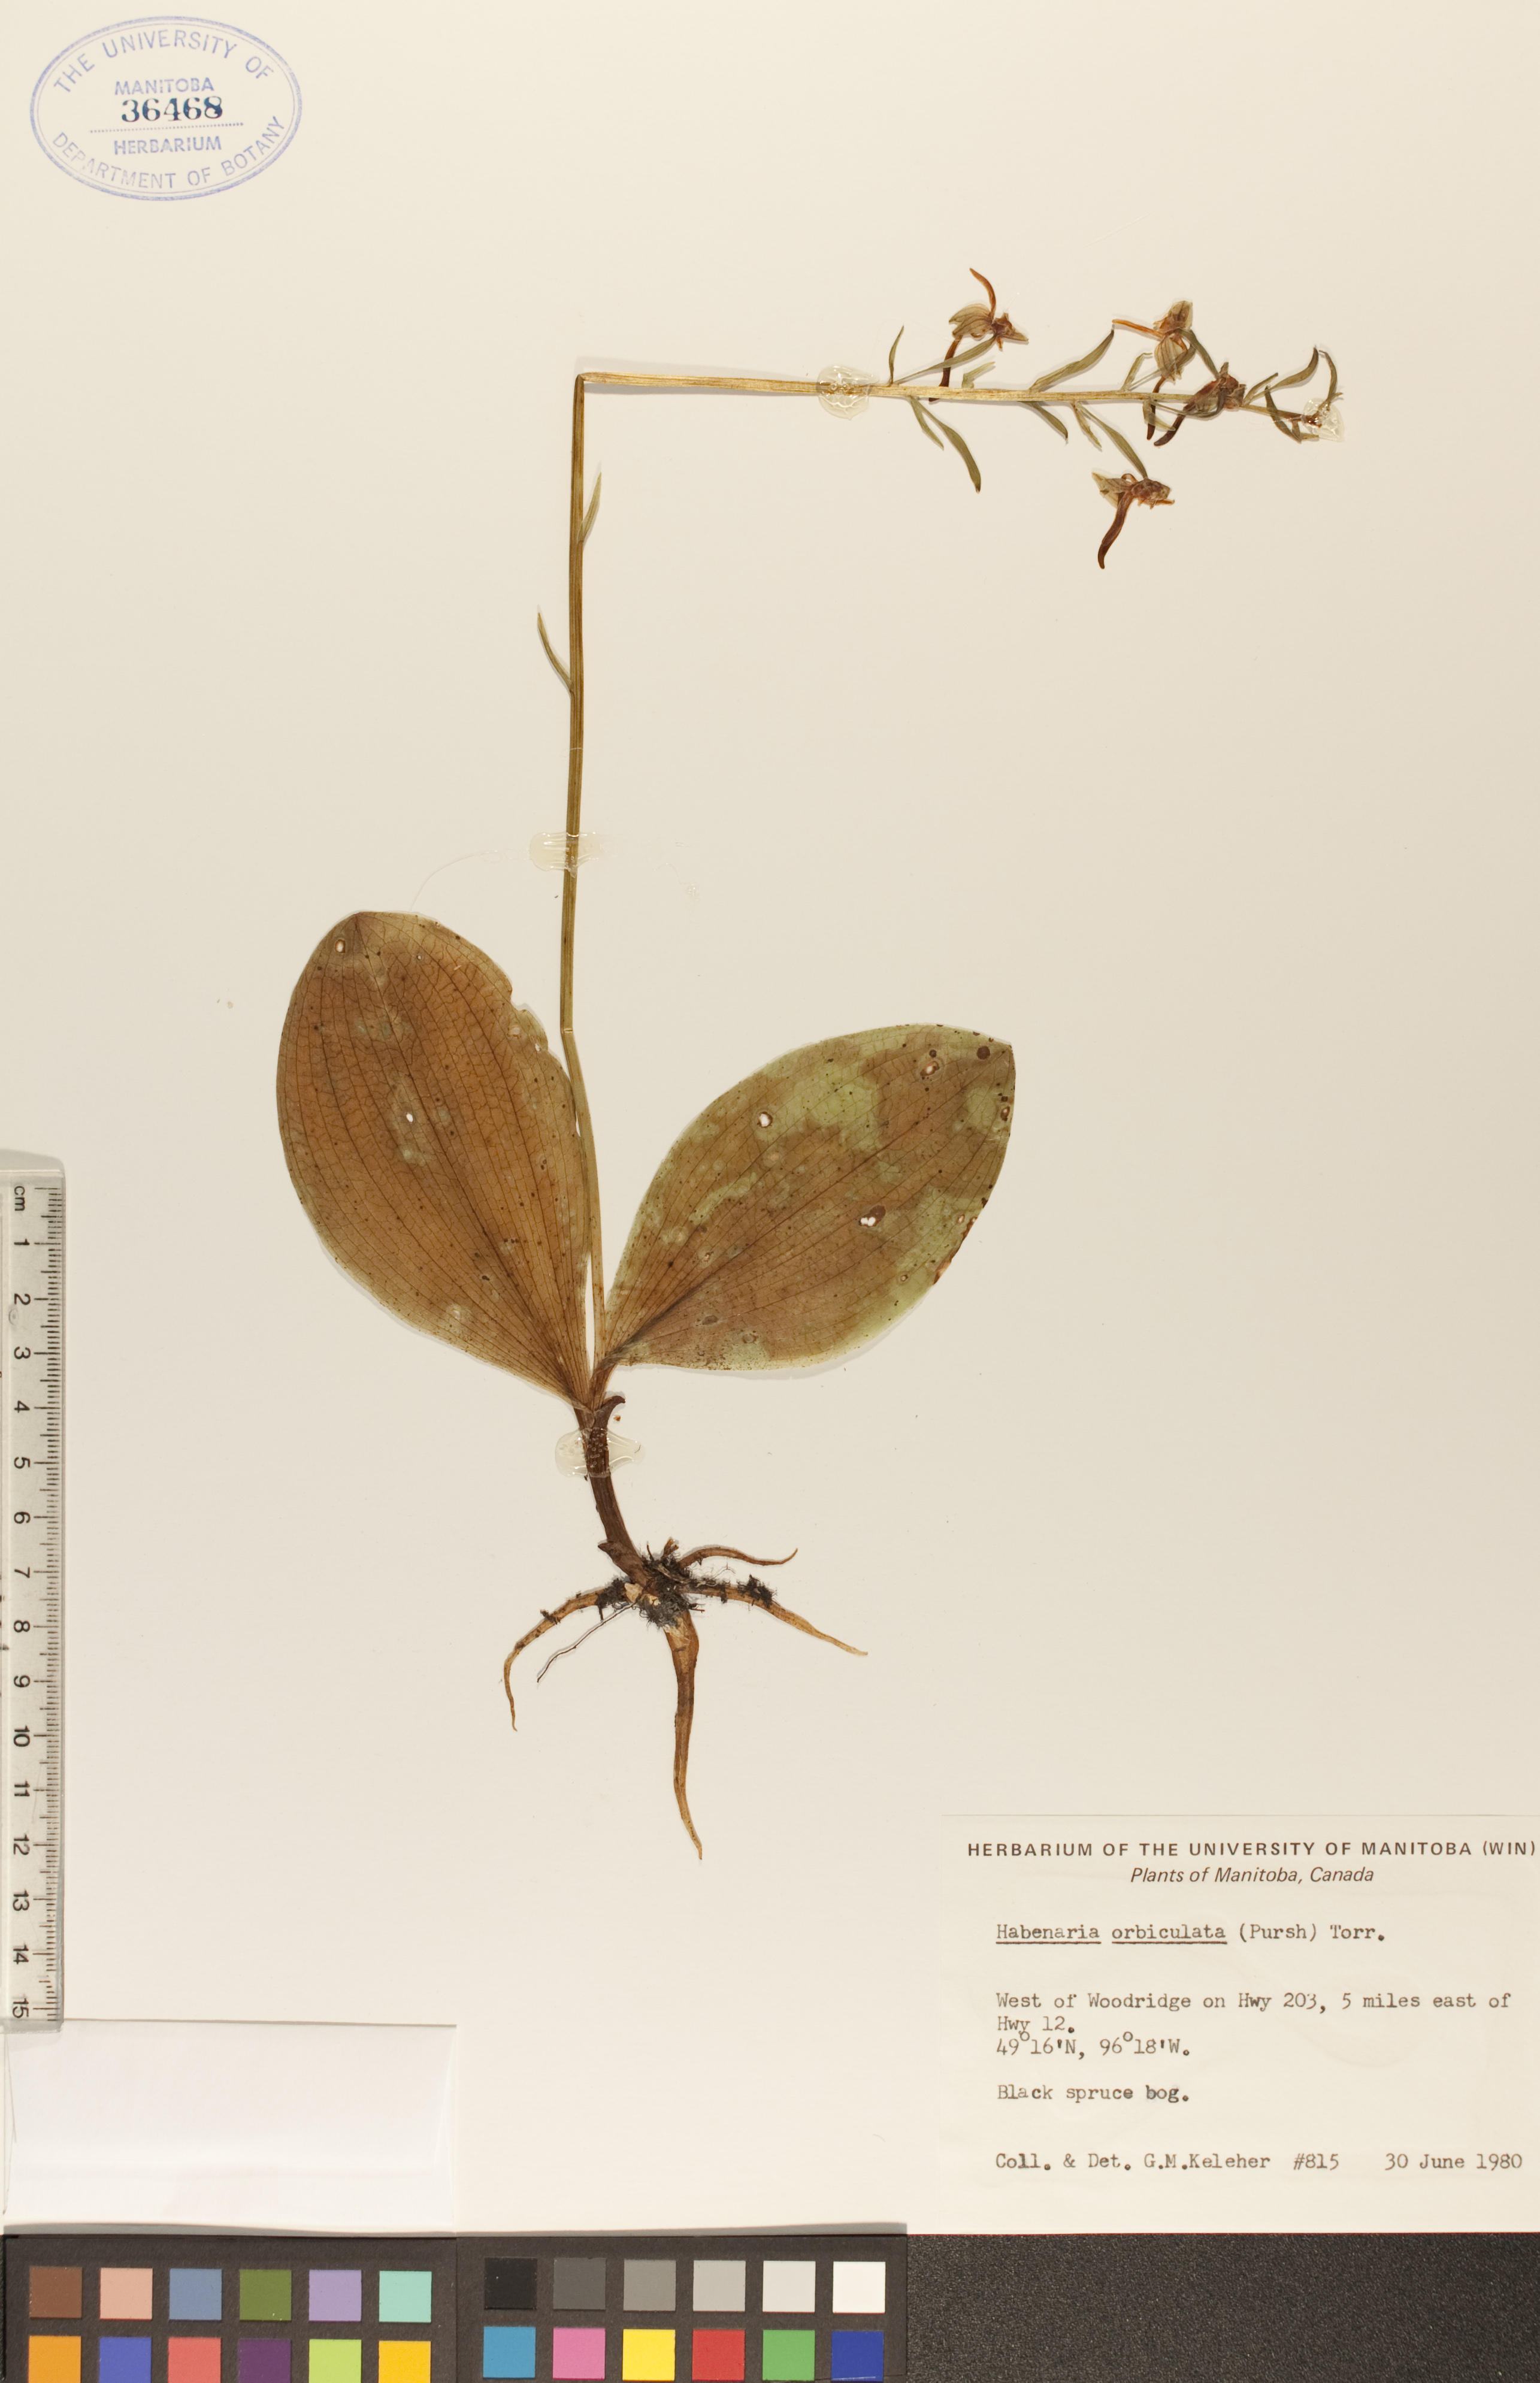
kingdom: Plantae
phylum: Tracheophyta
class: Liliopsida
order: Asparagales
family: Orchidaceae
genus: Platanthera
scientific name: Platanthera orbiculata
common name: Large round-leaved orchid
